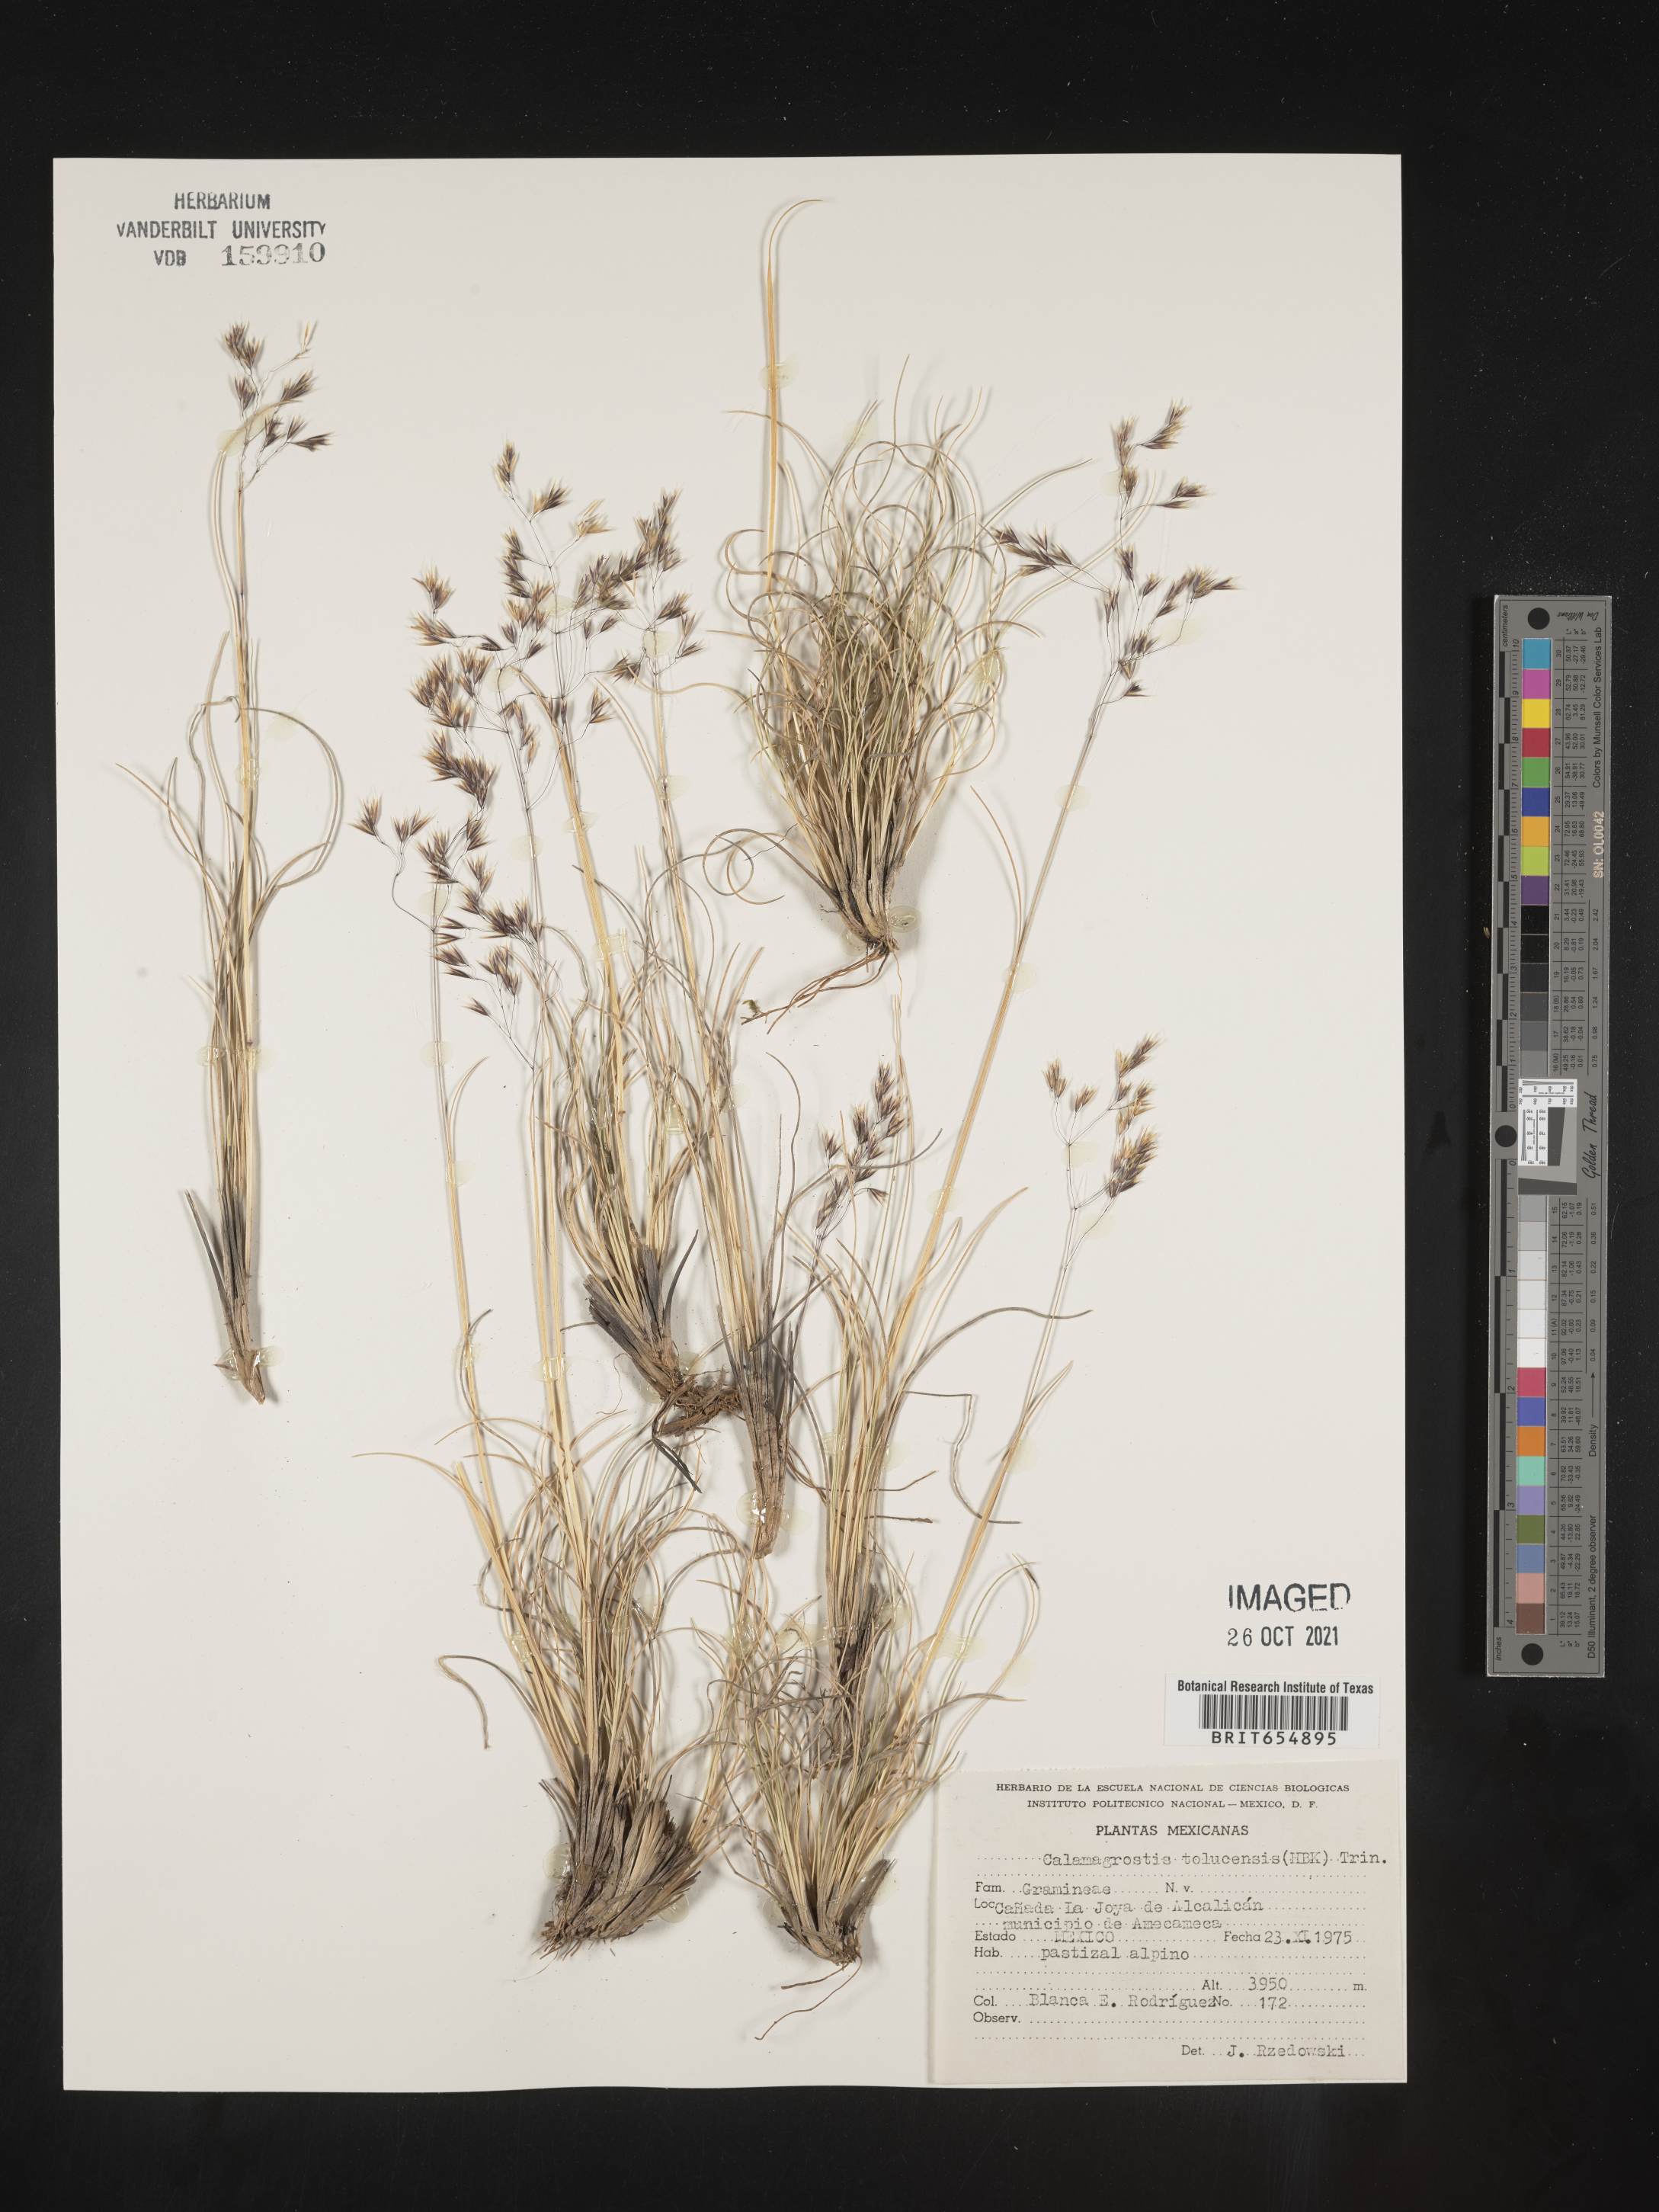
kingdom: Plantae
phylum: Tracheophyta
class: Liliopsida
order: Poales
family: Poaceae
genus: Calamagrostis
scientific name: Calamagrostis
